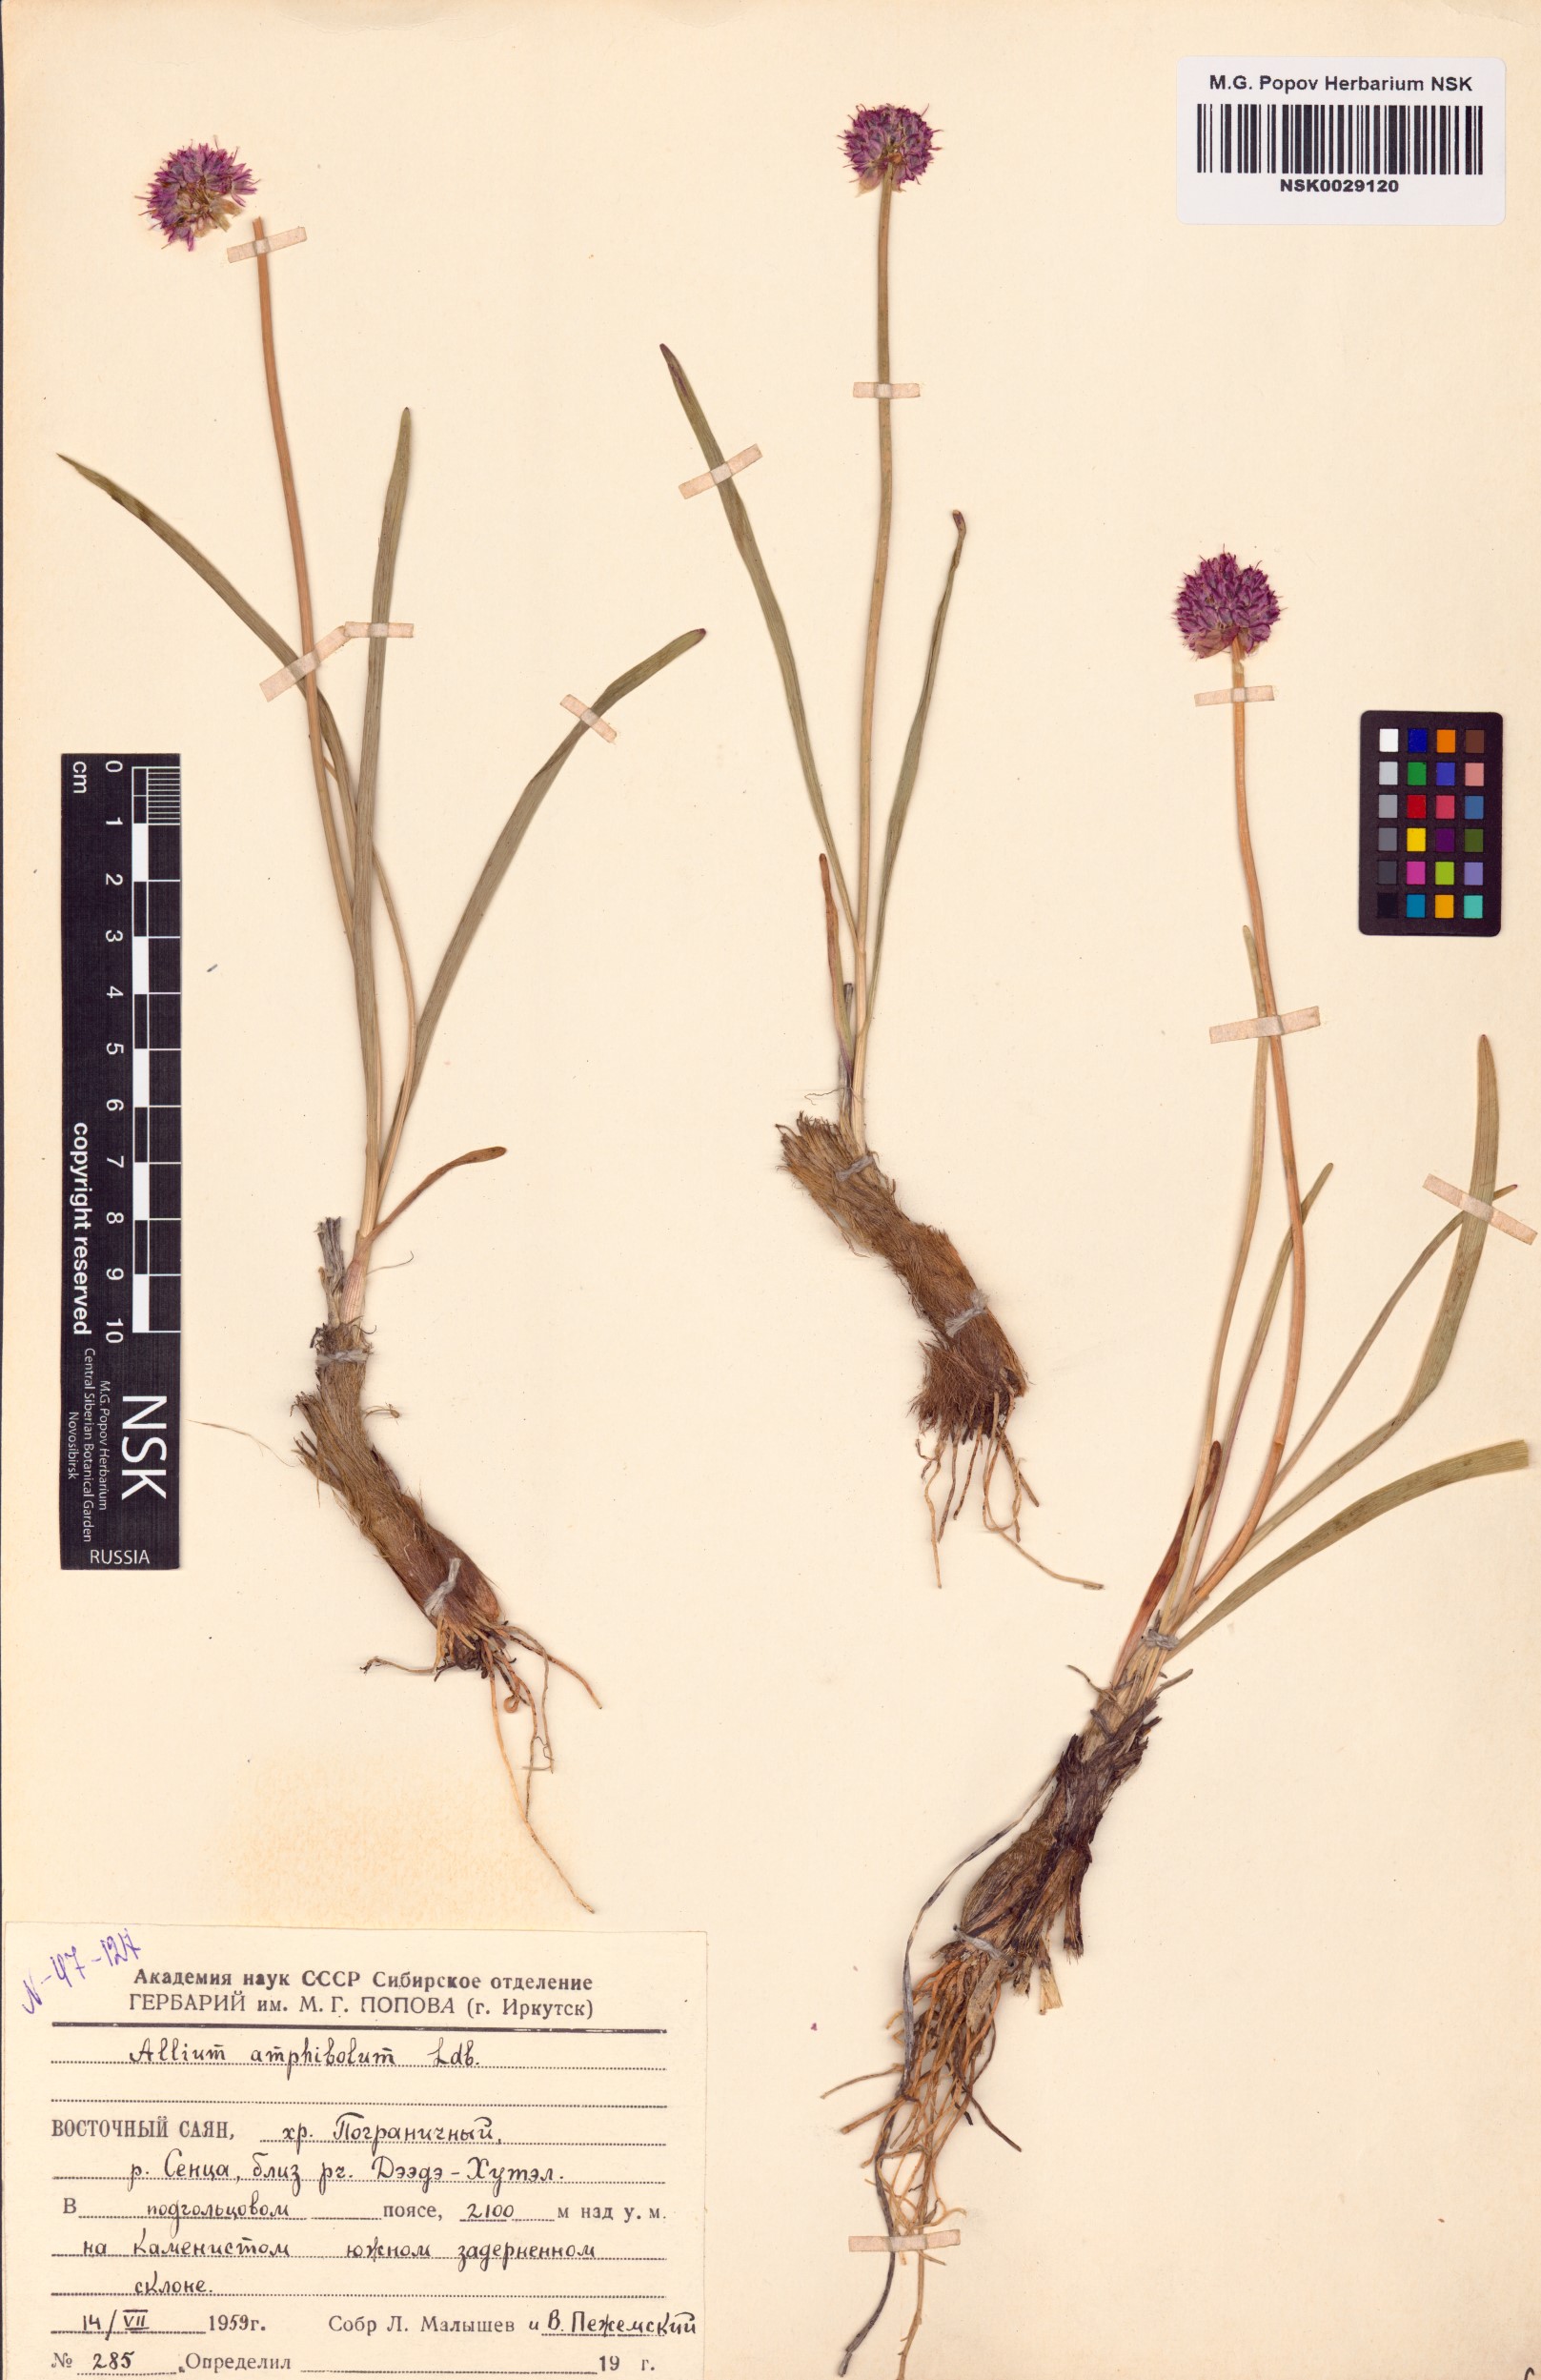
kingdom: Plantae
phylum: Tracheophyta
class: Liliopsida
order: Asparagales
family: Amaryllidaceae
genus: Allium
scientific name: Allium amphibolum
